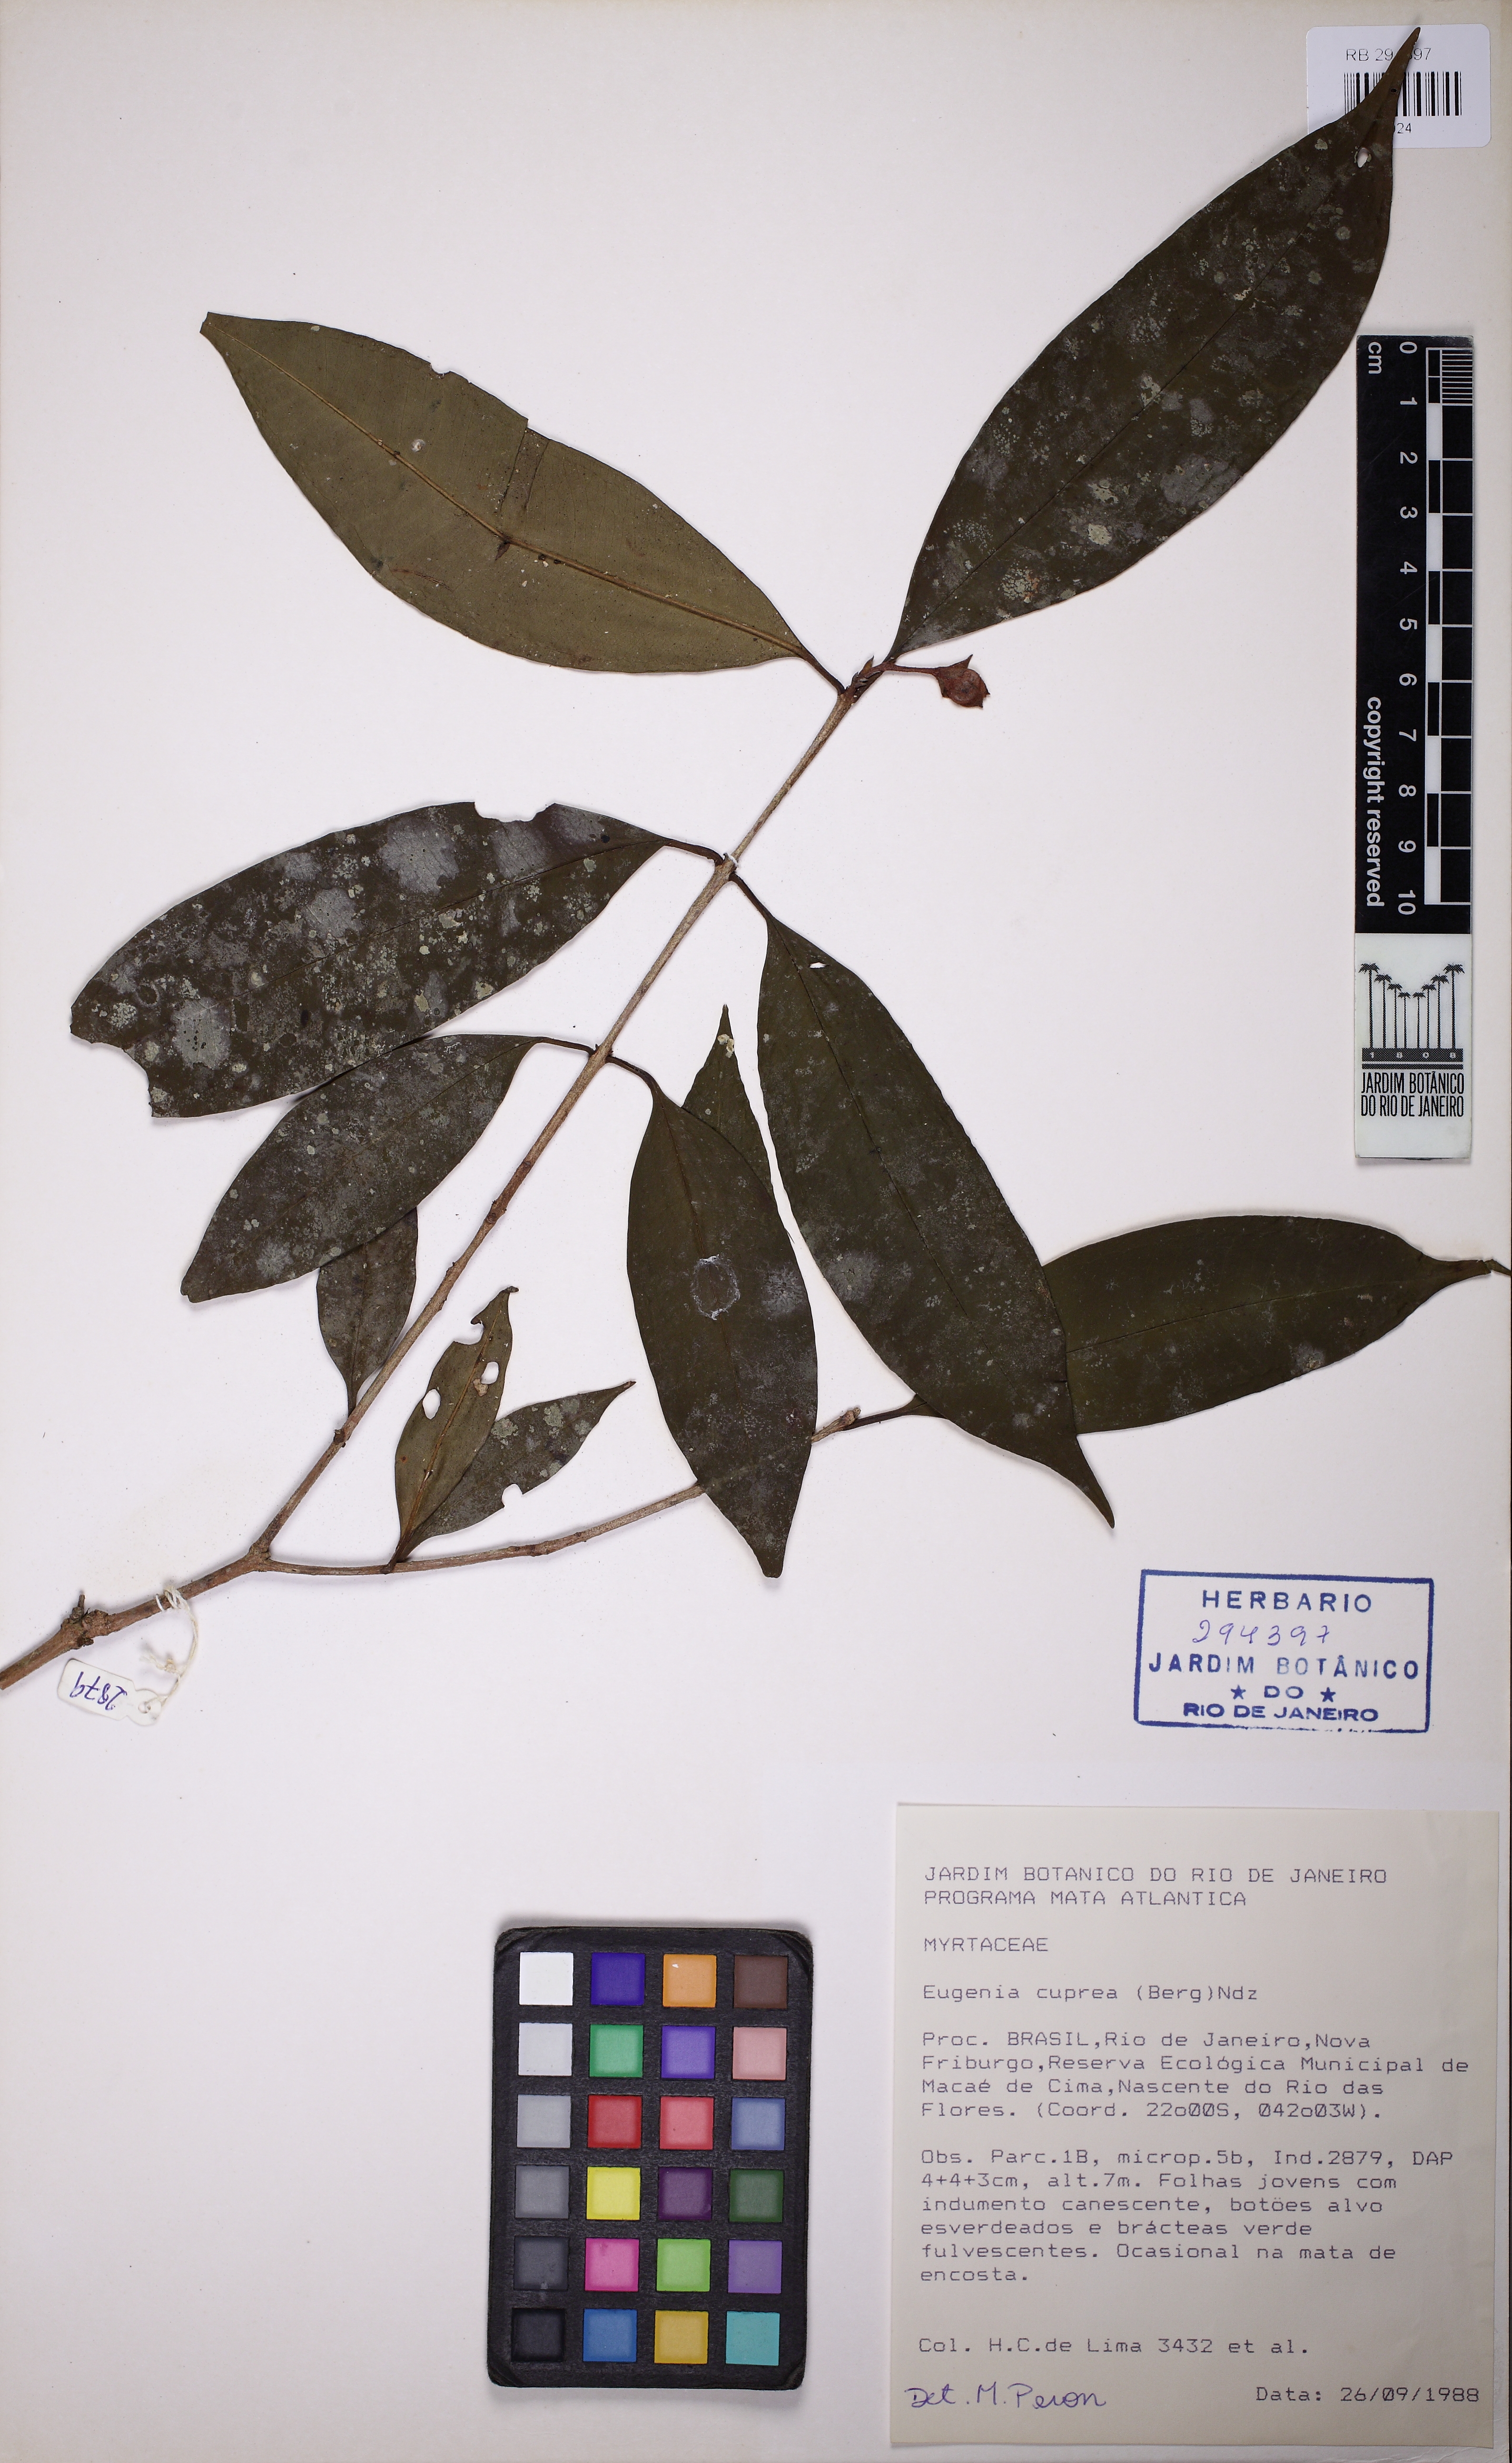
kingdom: Plantae
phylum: Tracheophyta
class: Magnoliopsida
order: Myrtales
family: Myrtaceae
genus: Eugenia
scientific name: Eugenia cuprea
